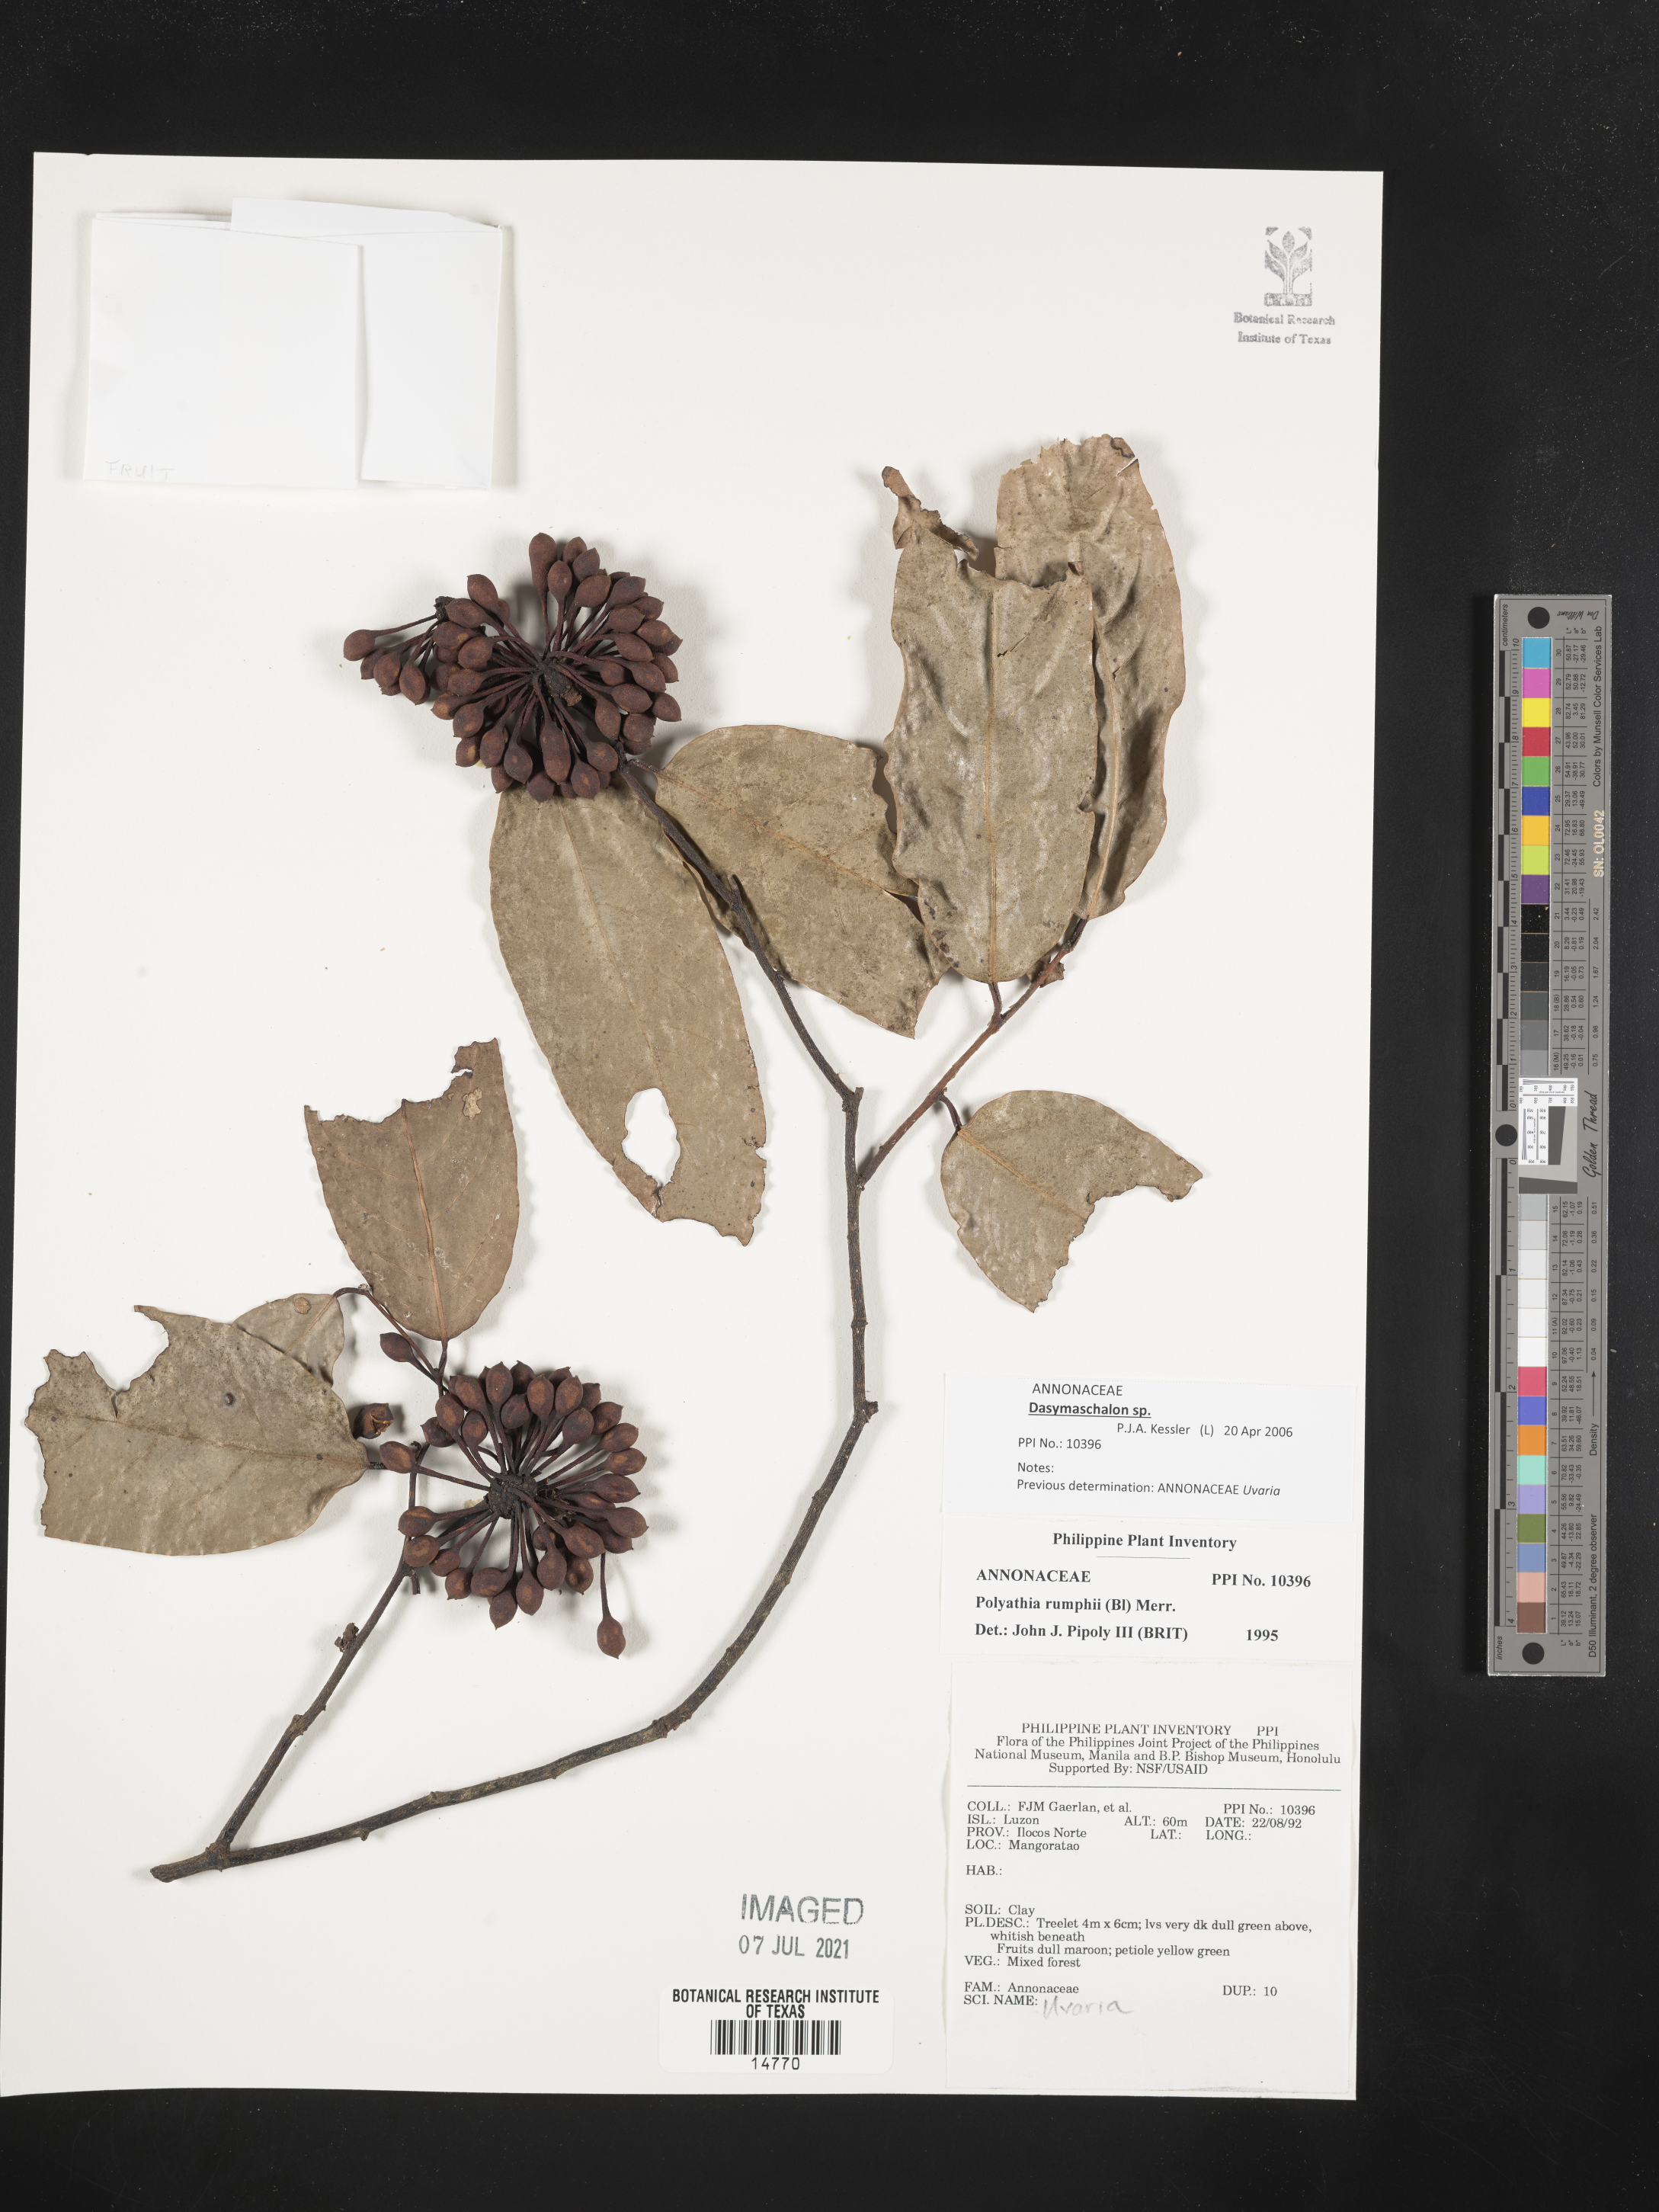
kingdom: Plantae
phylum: Tracheophyta
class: Magnoliopsida
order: Magnoliales
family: Annonaceae
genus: Hubera
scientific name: Hubera rumphii
